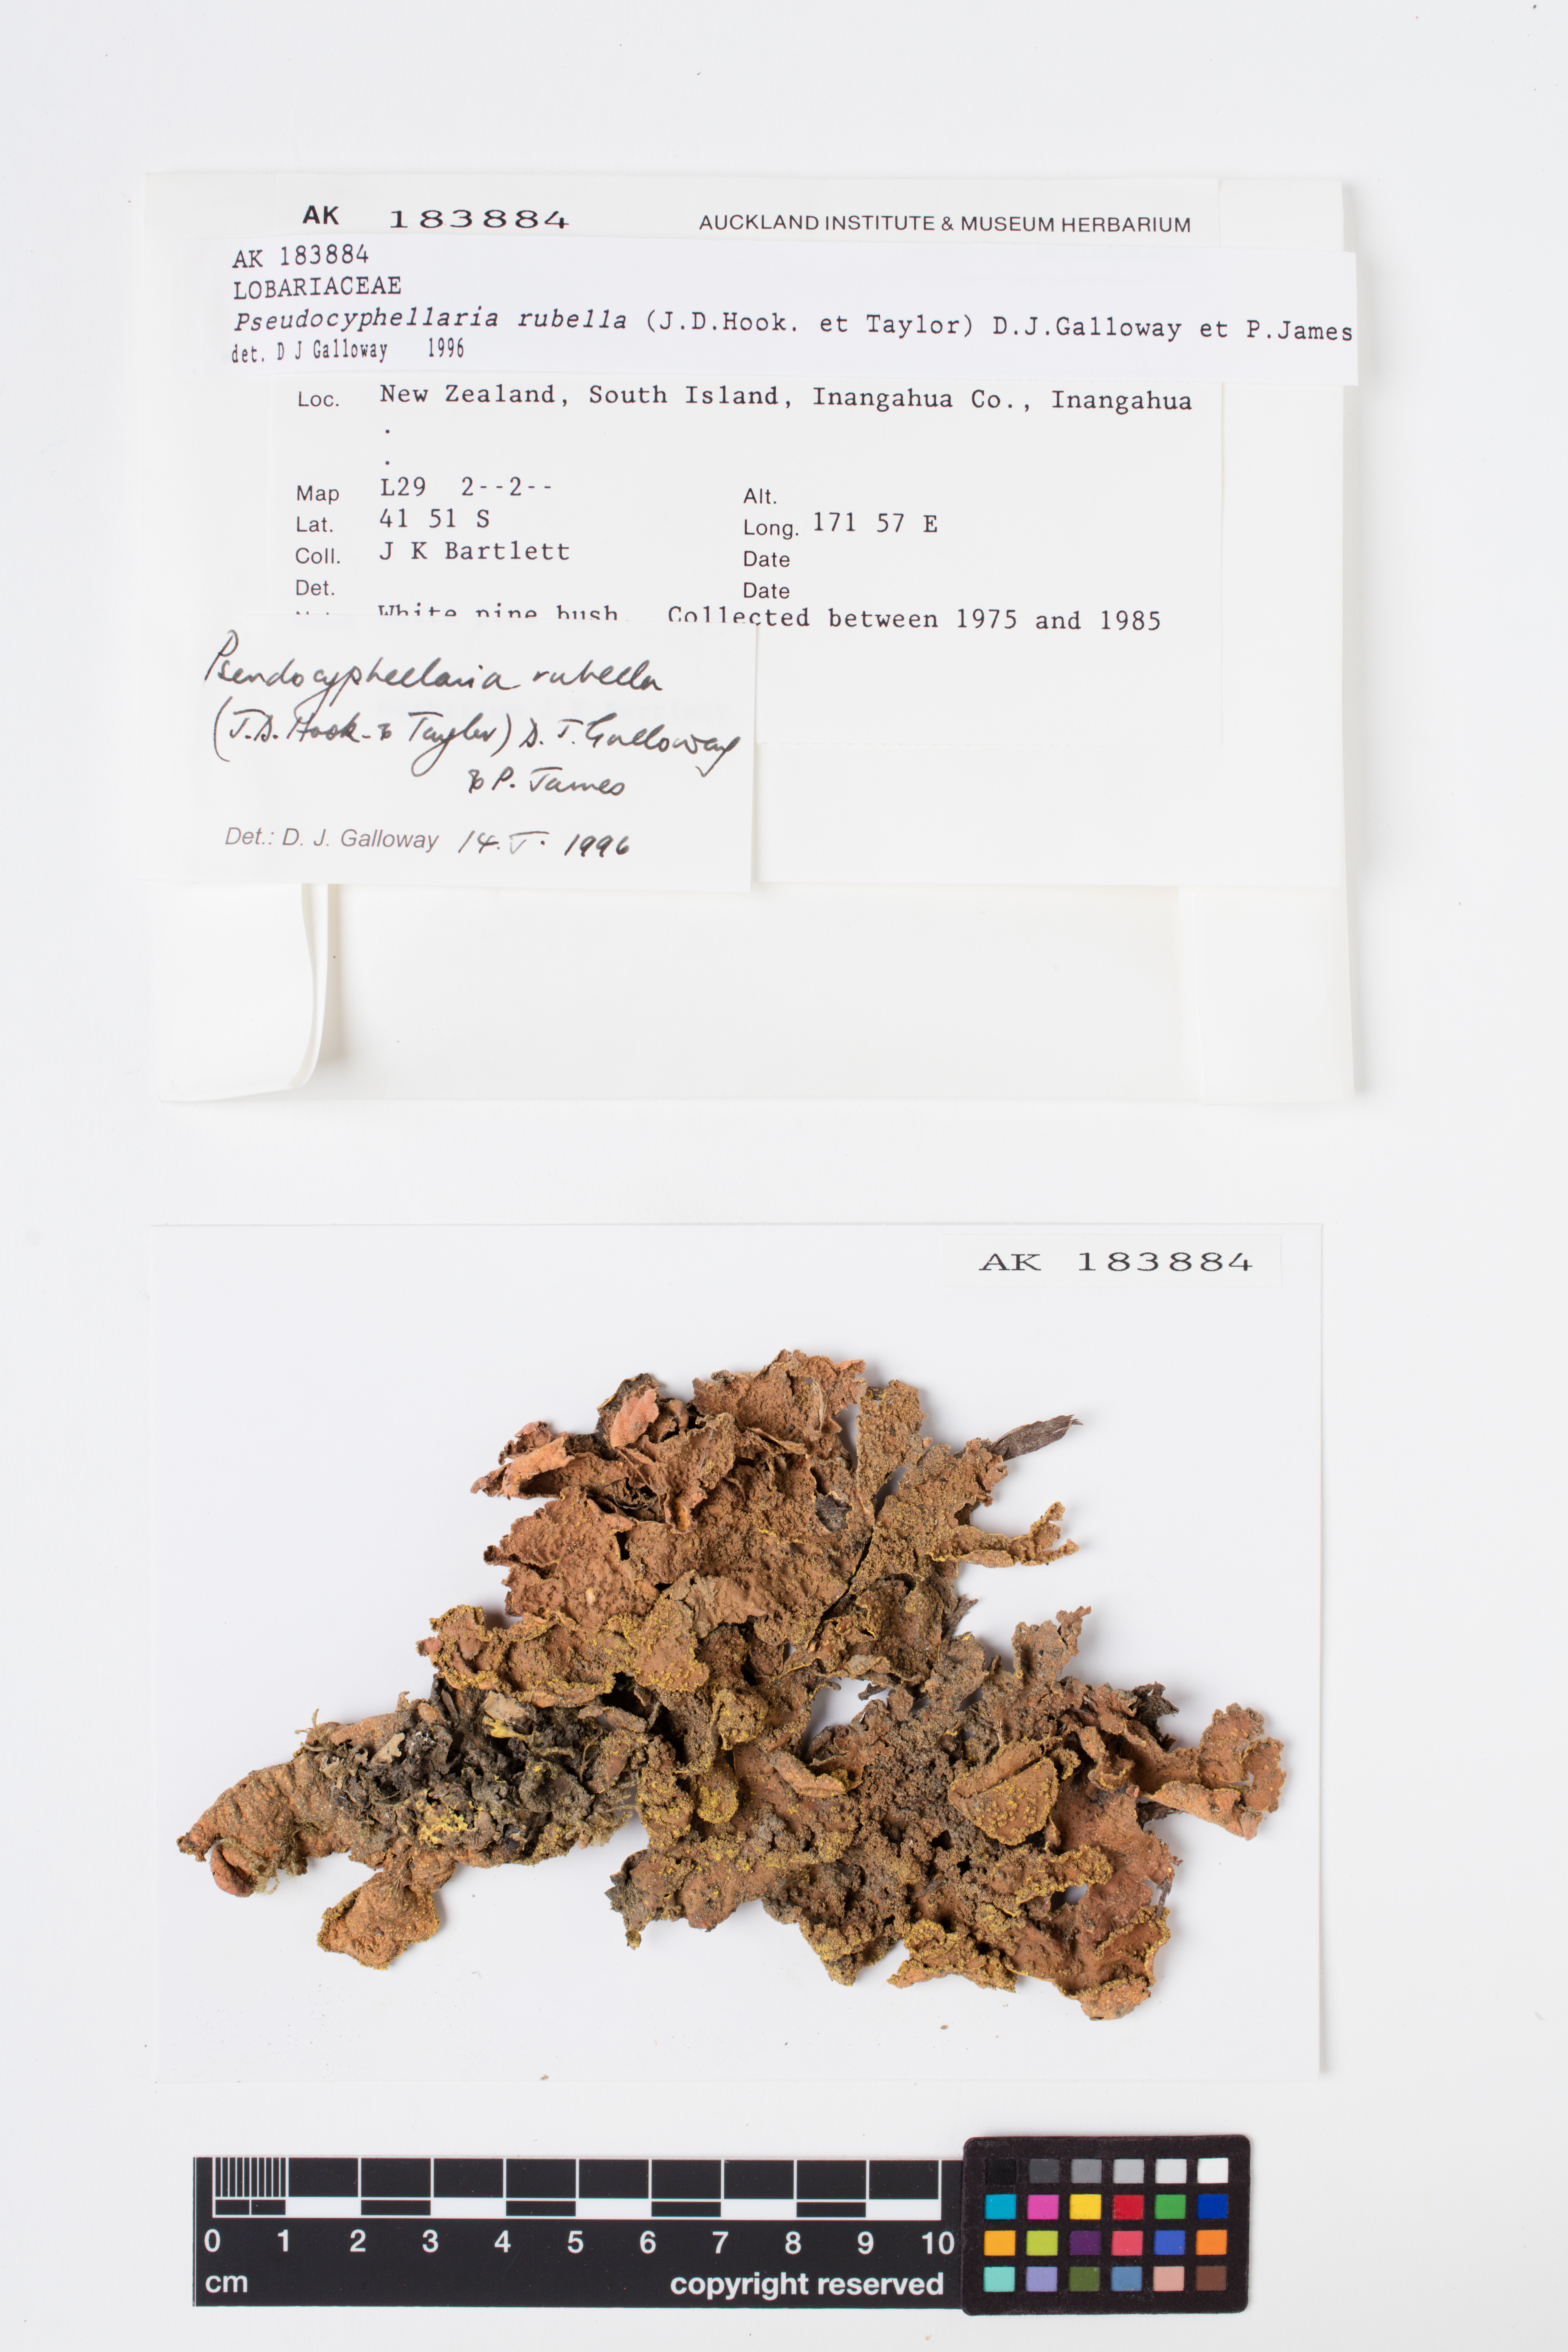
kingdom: Fungi
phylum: Ascomycota
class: Lecanoromycetes
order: Peltigerales
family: Lobariaceae
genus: Pseudocyphellaria
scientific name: Pseudocyphellaria rubella
